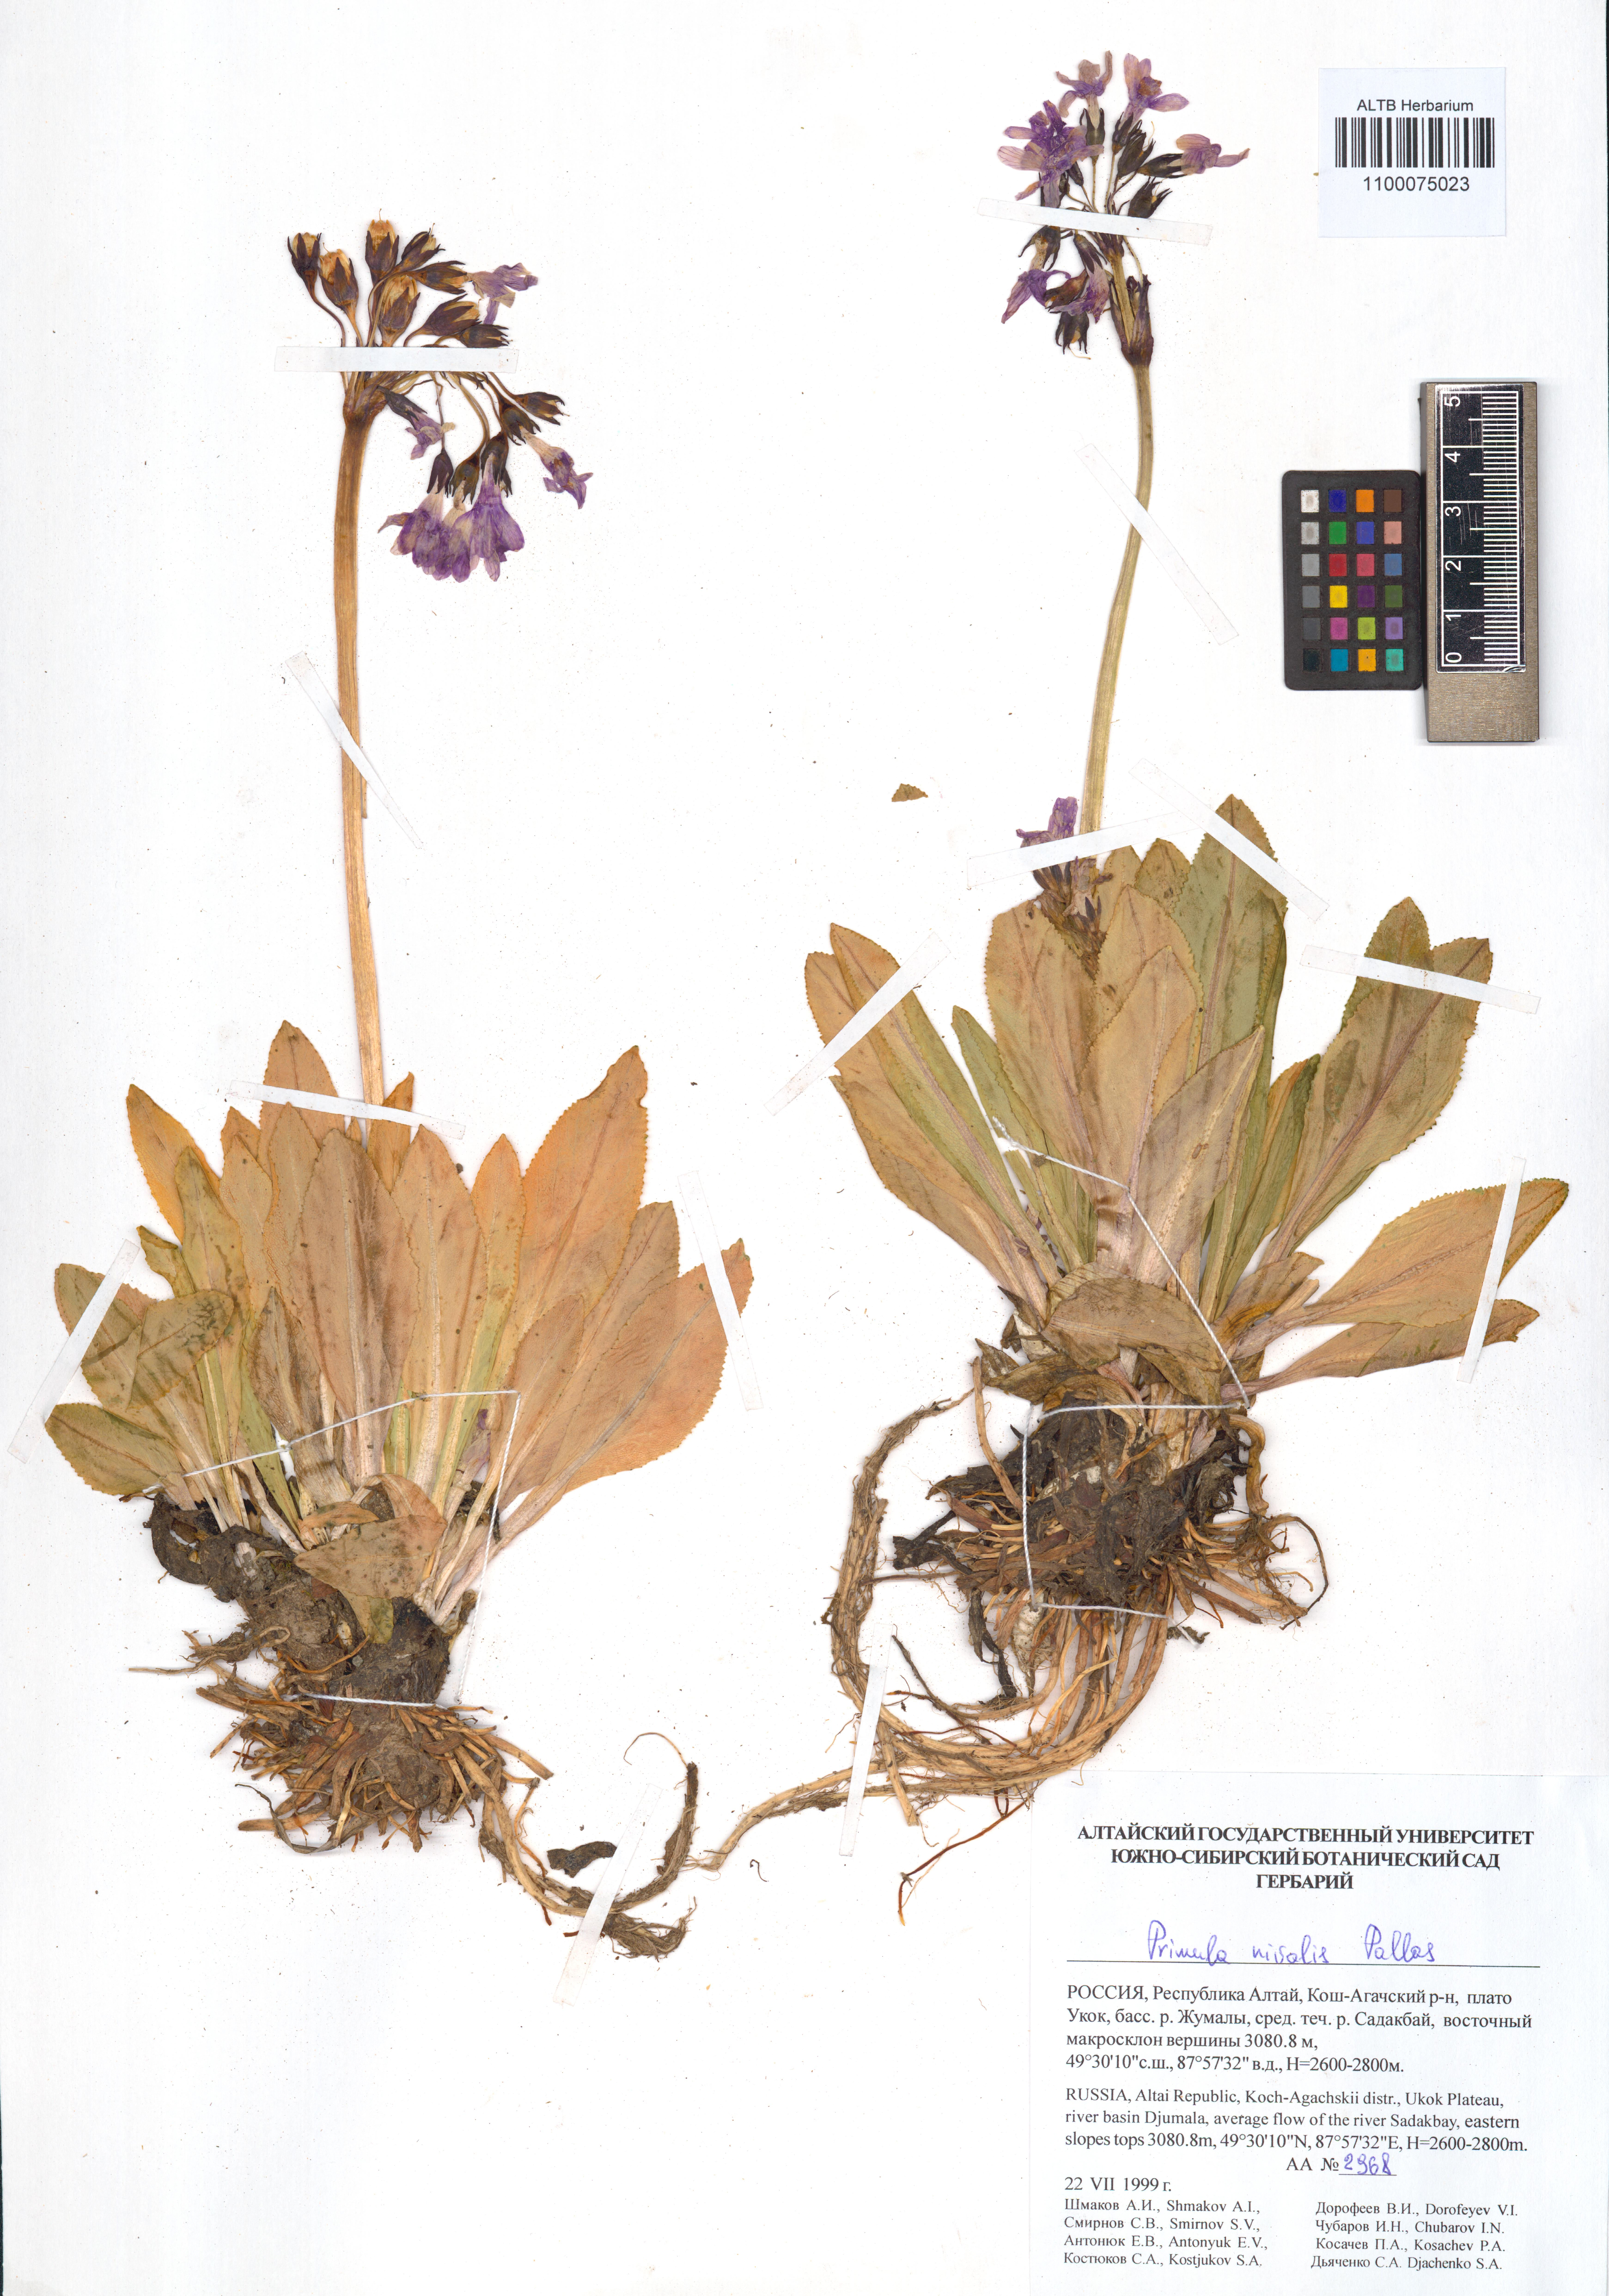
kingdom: Plantae
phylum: Tracheophyta
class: Magnoliopsida
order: Ericales
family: Primulaceae
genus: Primula
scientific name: Primula nivalis
